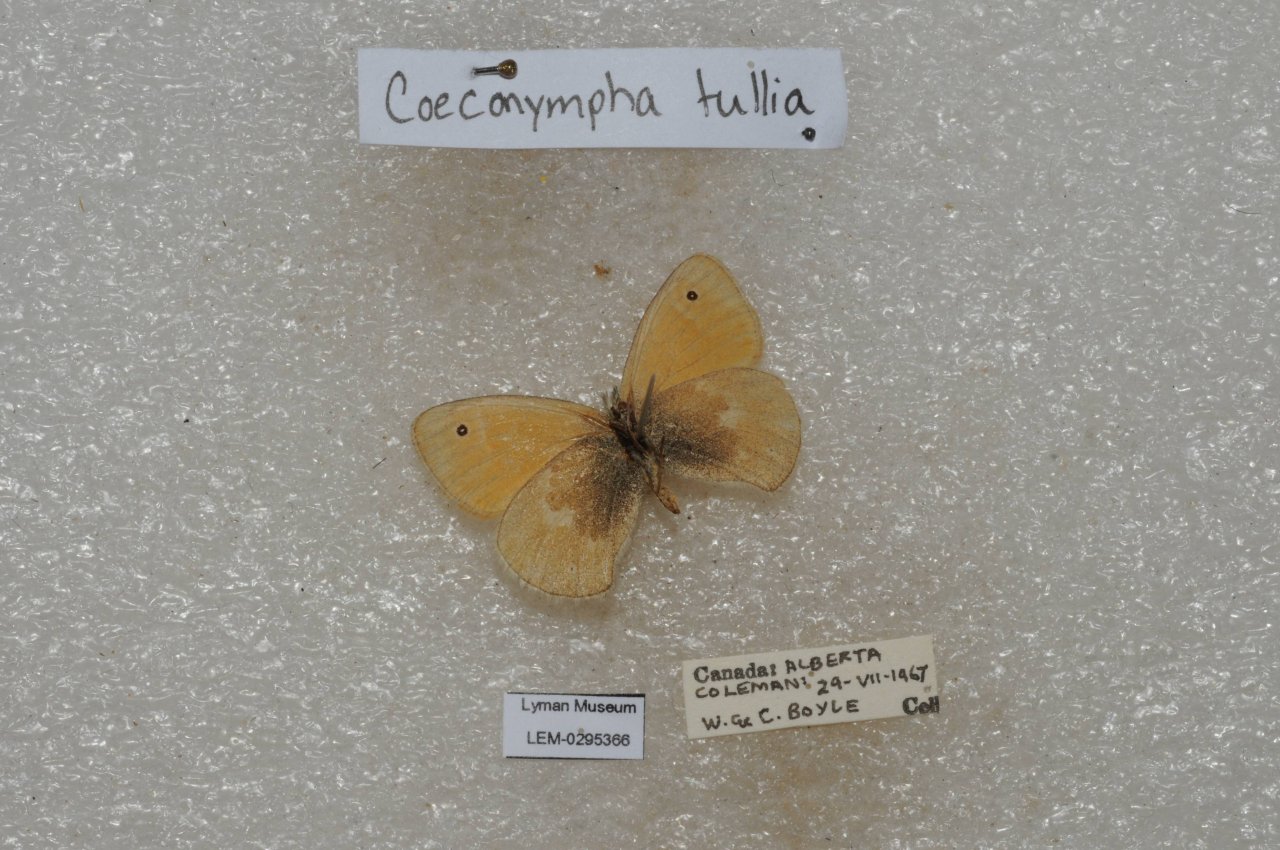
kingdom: Animalia
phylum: Arthropoda
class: Insecta
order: Lepidoptera
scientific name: Lepidoptera
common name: Butterflies
